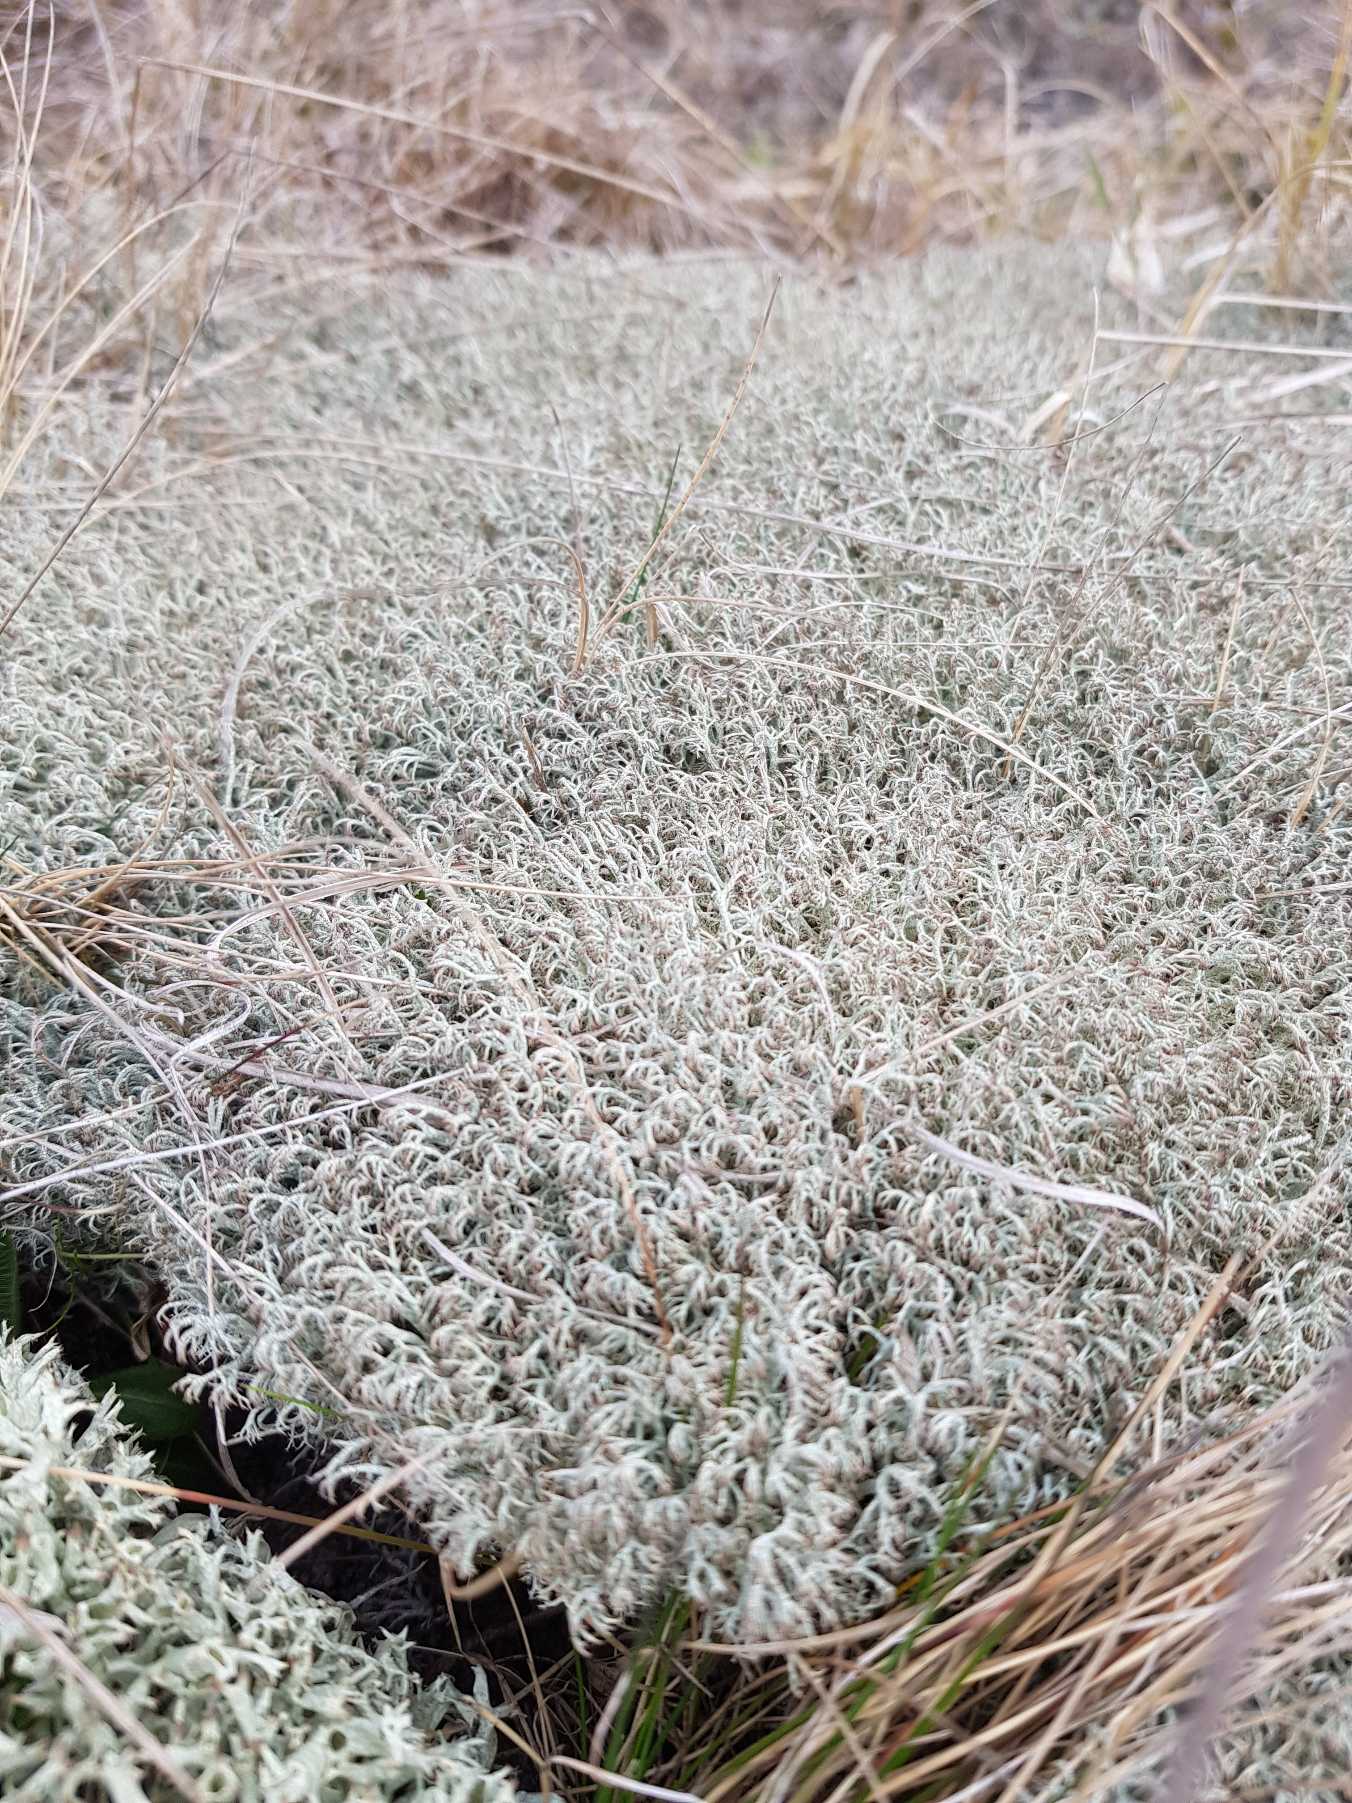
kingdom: Fungi
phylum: Ascomycota
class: Lecanoromycetes
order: Lecanorales
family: Cladoniaceae
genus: Cladonia
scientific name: Cladonia ciliata
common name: Spinkel rensdyrlav
